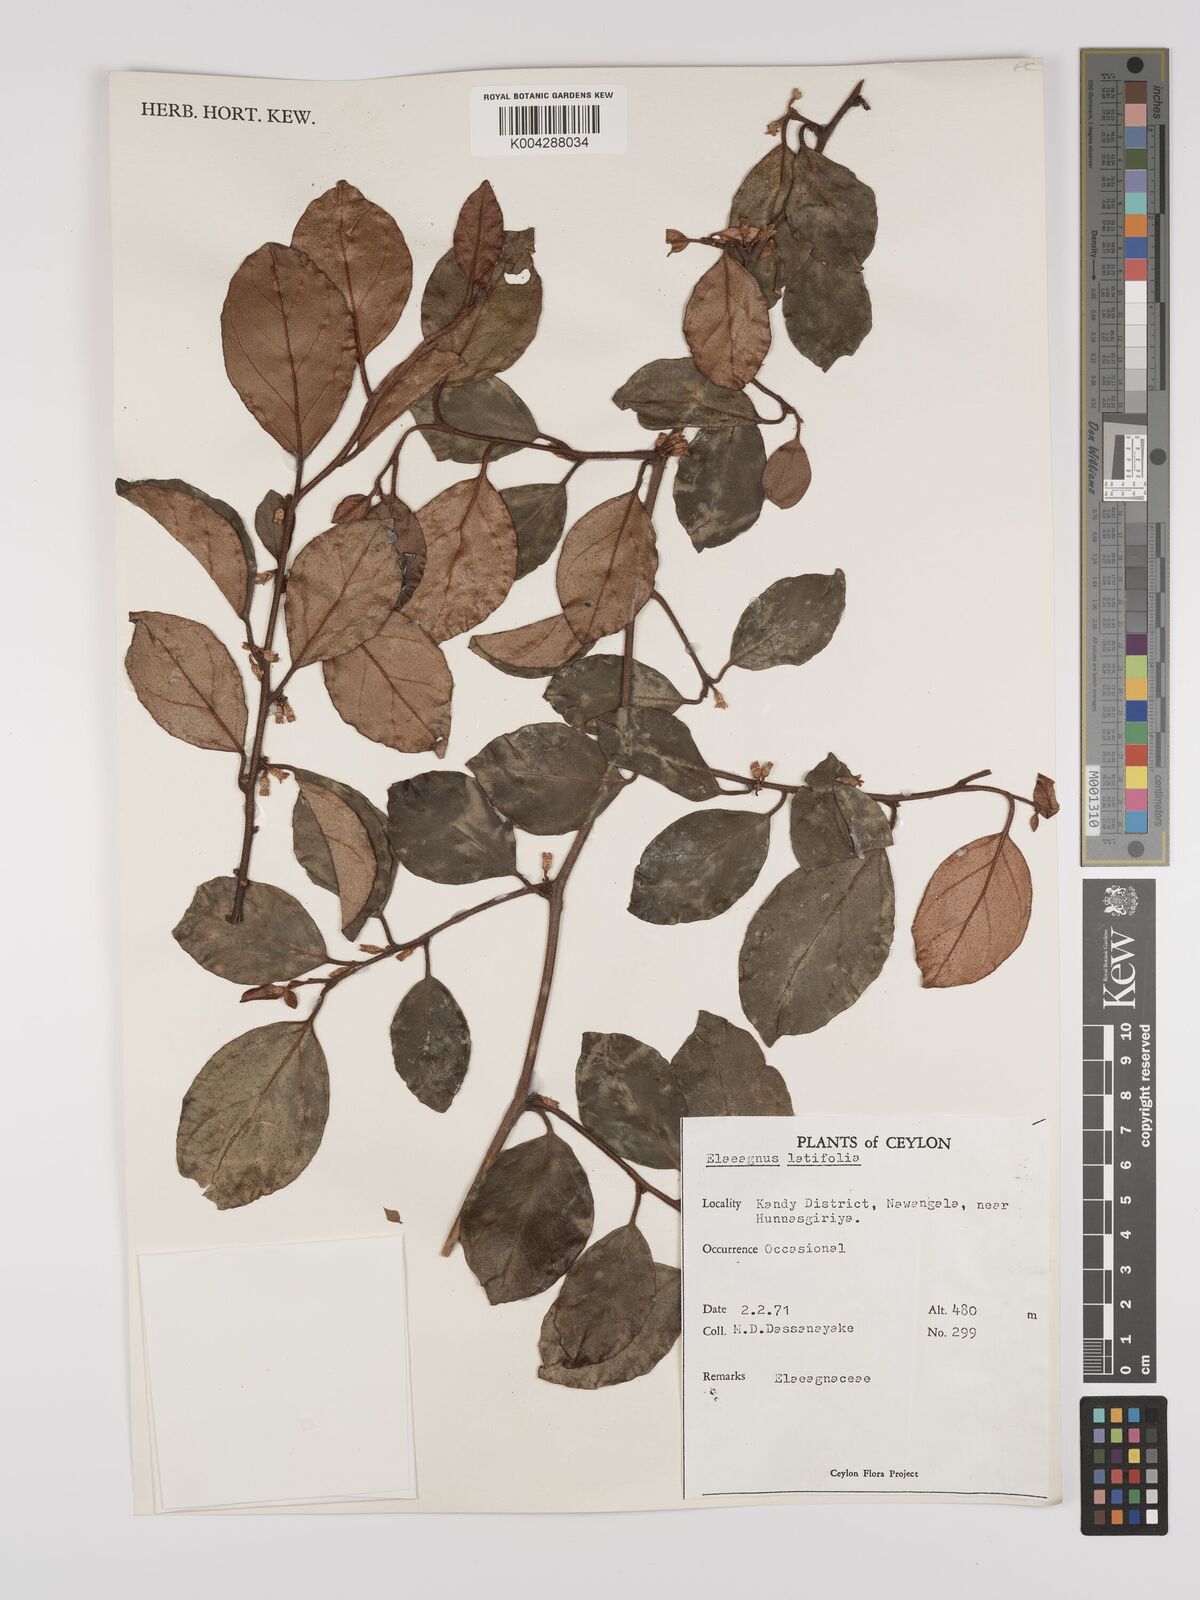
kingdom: Plantae
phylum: Tracheophyta
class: Magnoliopsida
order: Rosales
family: Elaeagnaceae
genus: Elaeagnus
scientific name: Elaeagnus latifolia
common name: Oleaster
